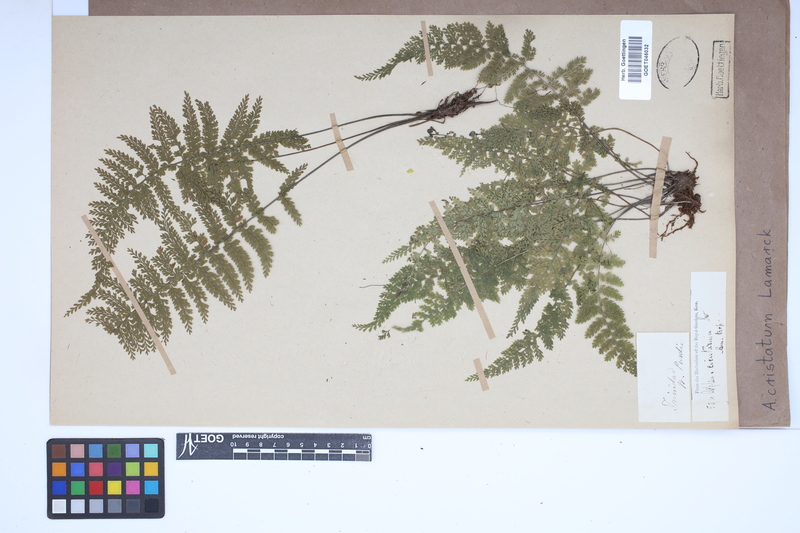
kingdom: Plantae
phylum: Tracheophyta
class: Polypodiopsida
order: Polypodiales
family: Aspleniaceae
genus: Asplenium
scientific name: Asplenium cristatum
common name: Parsley spleenwort
